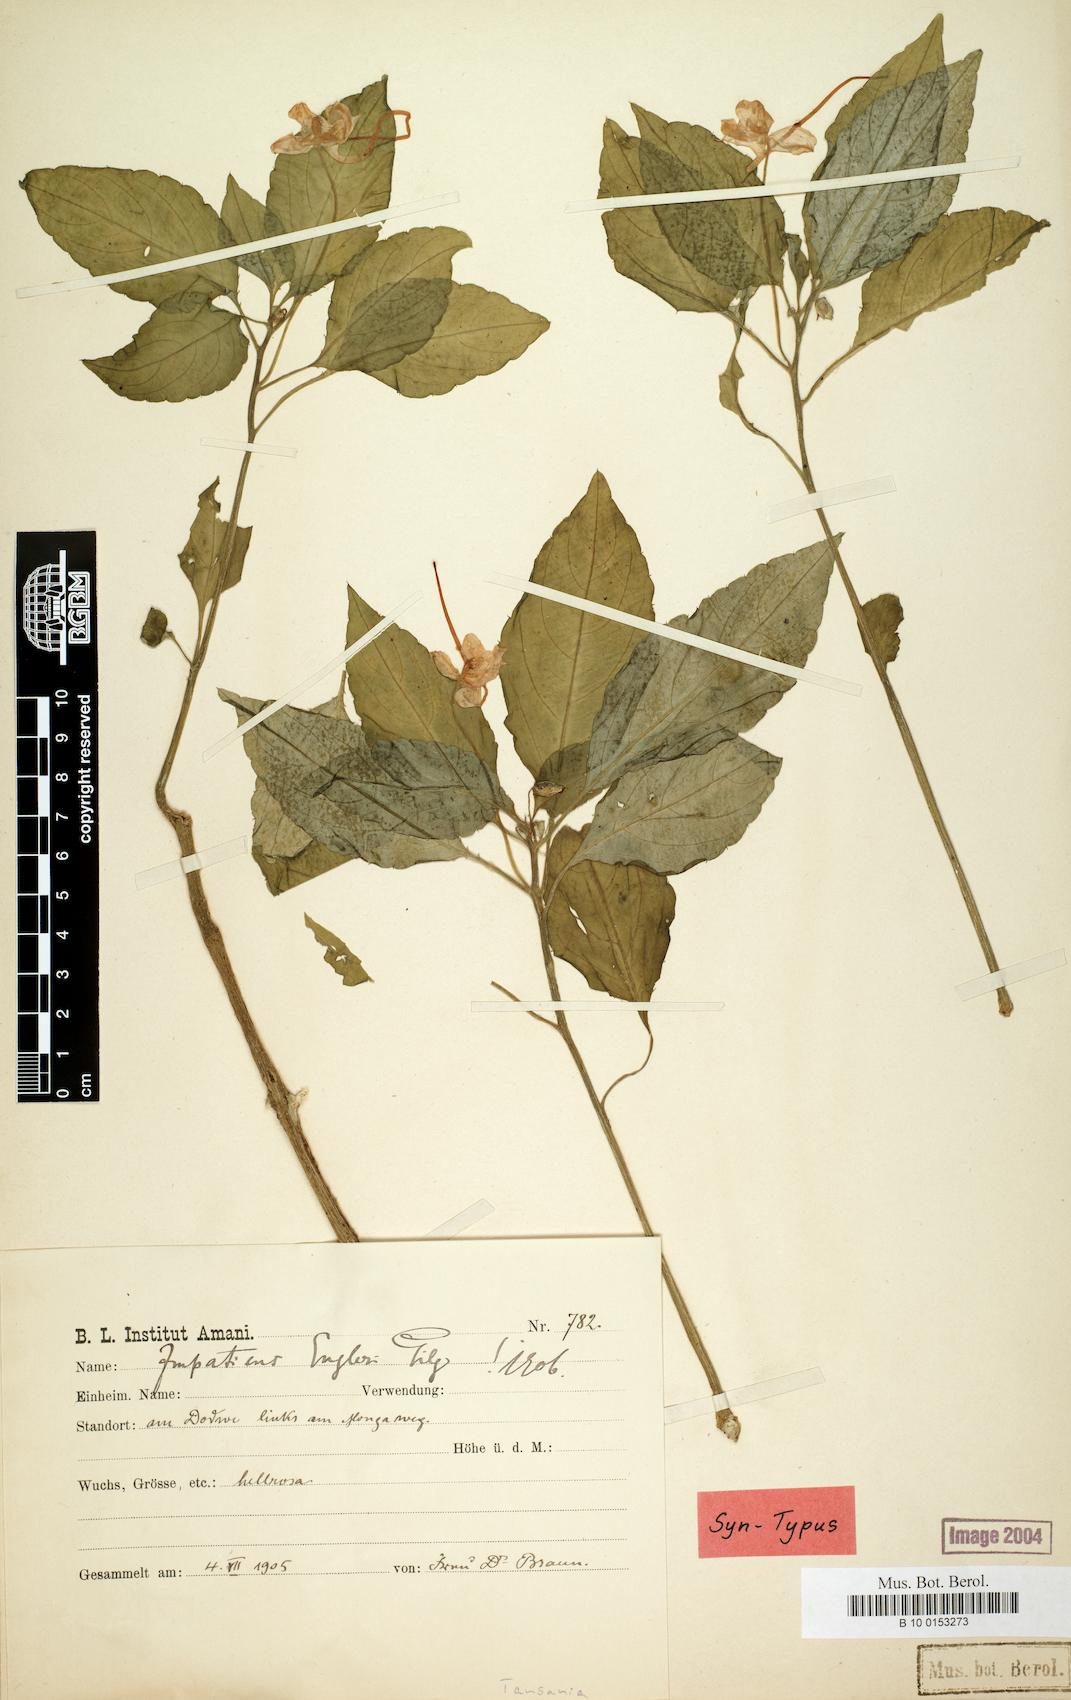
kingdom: Plantae
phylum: Tracheophyta
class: Magnoliopsida
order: Ericales
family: Balsaminaceae
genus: Impatiens
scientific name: Impatiens engleri
